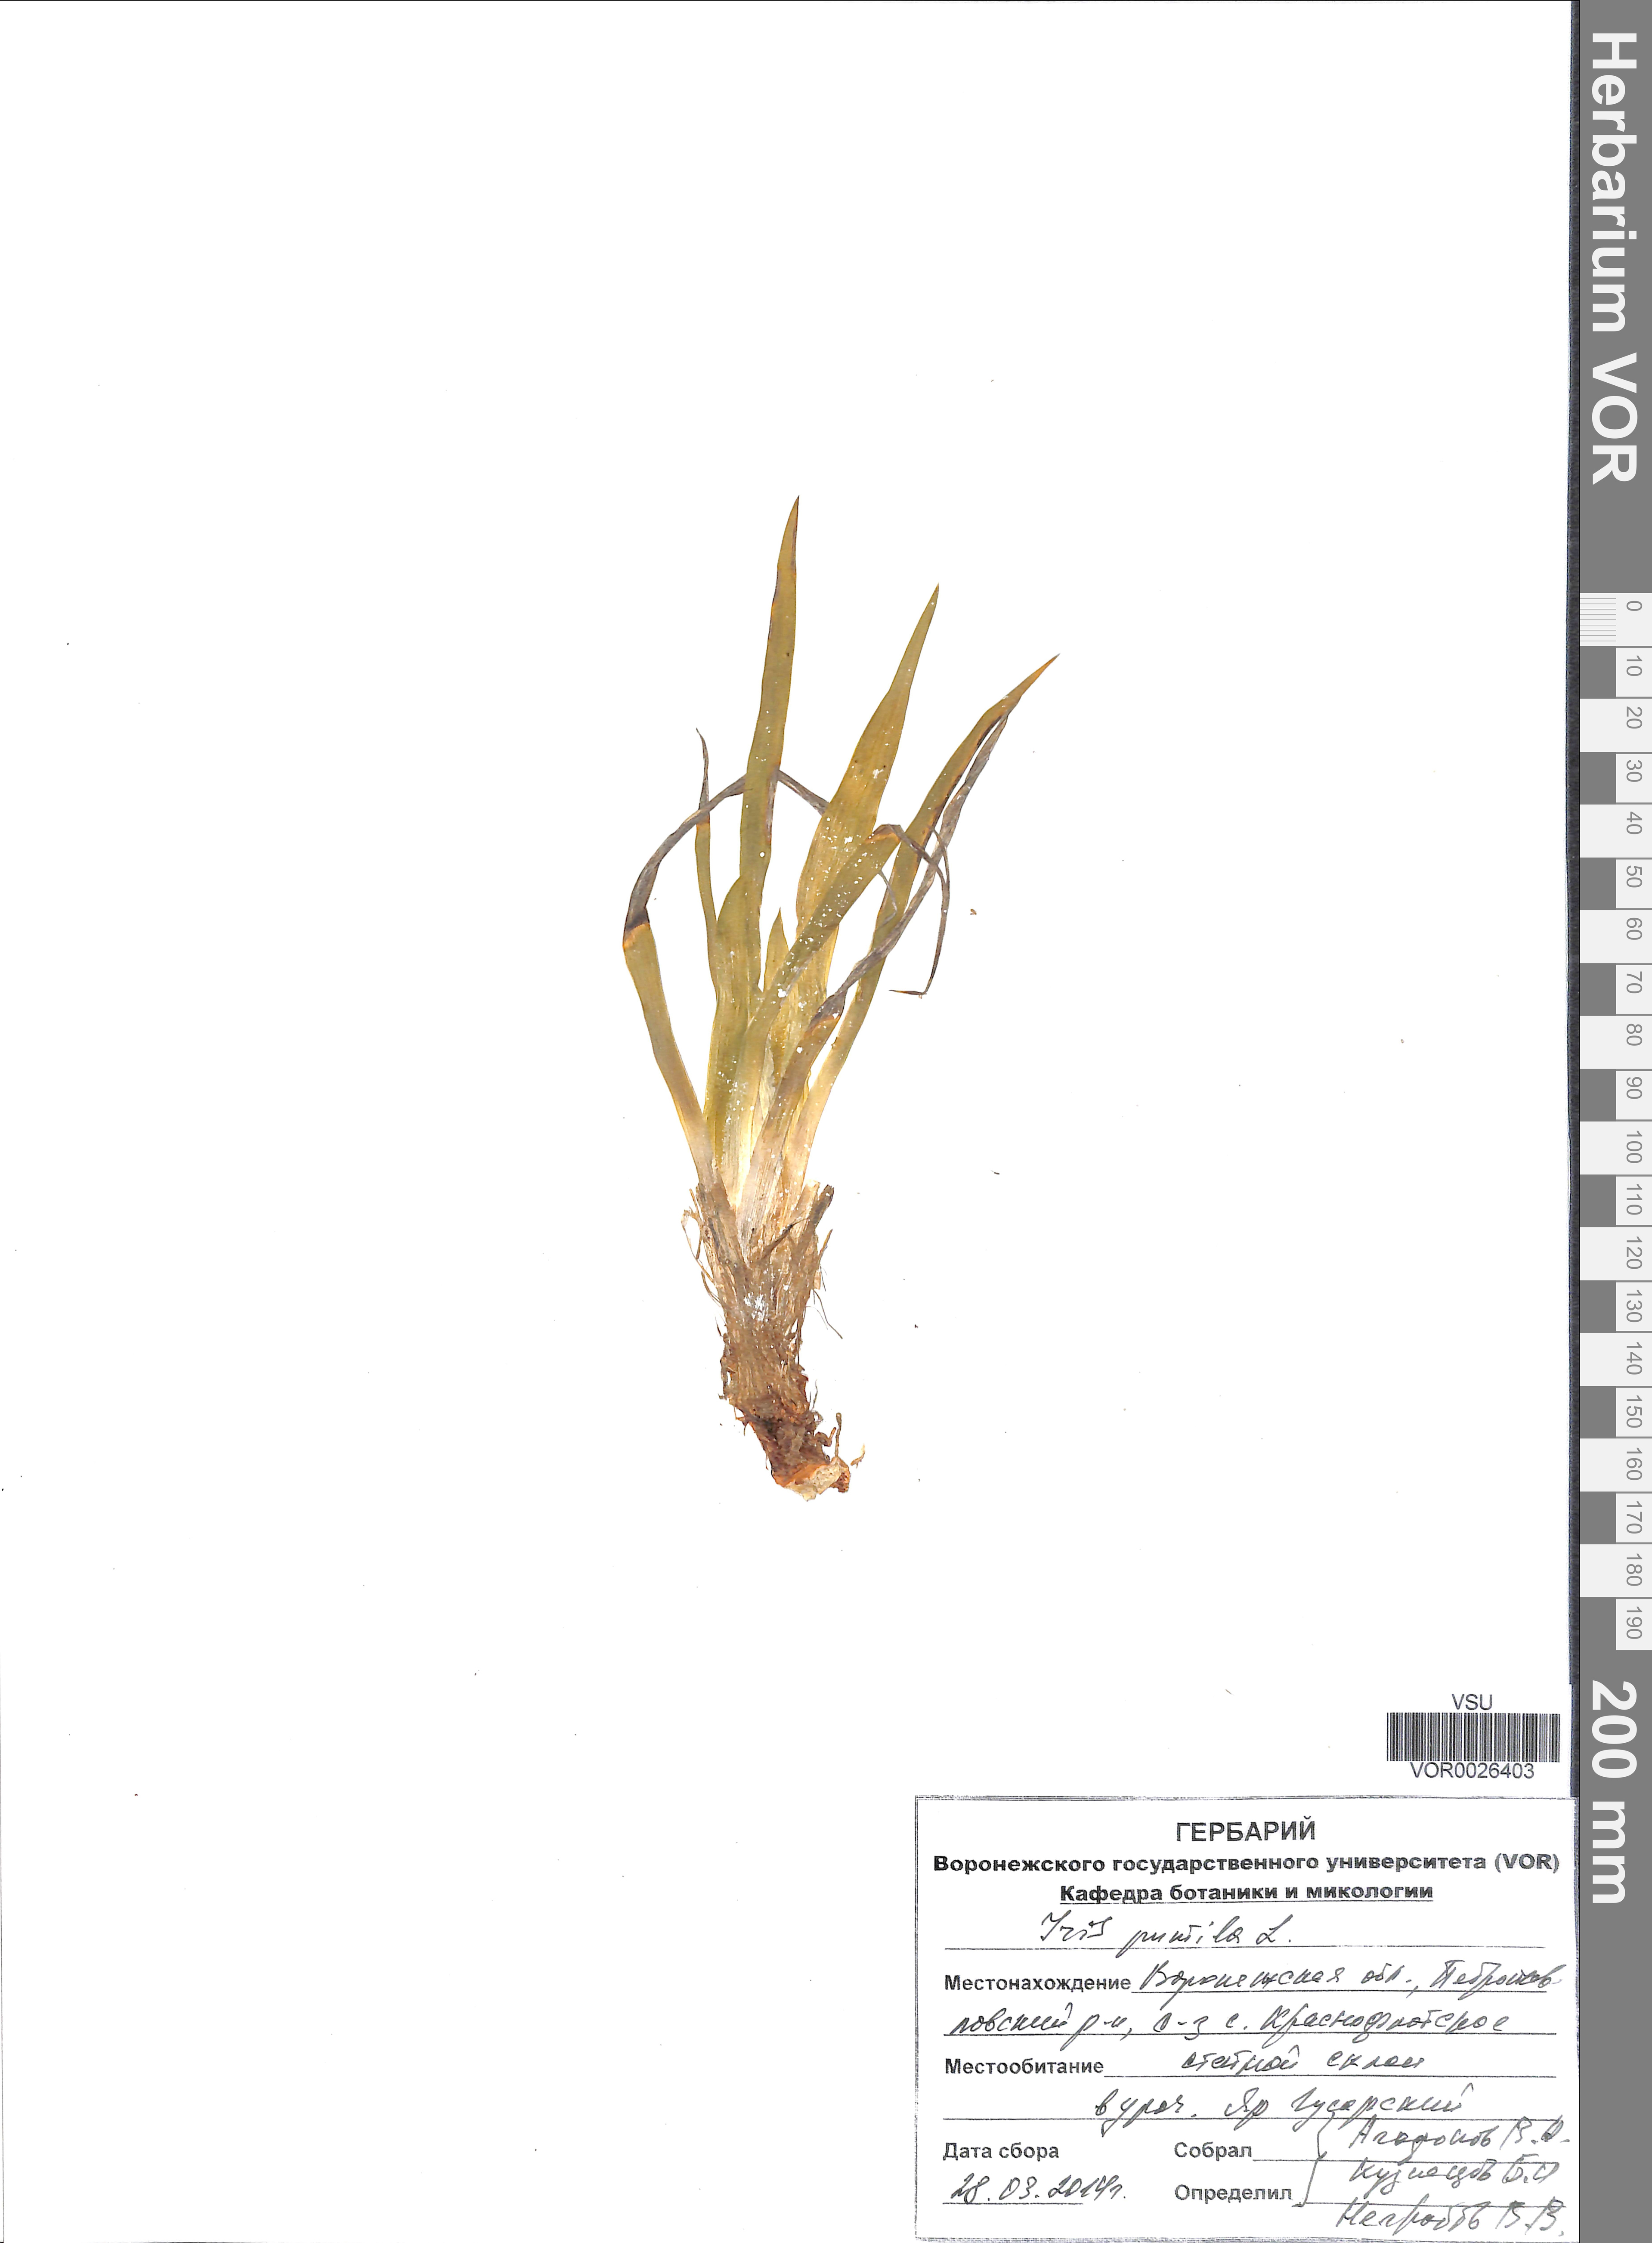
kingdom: Plantae
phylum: Tracheophyta
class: Liliopsida
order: Asparagales
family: Iridaceae
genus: Iris
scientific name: Iris pseudacorus
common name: Yellow flag
